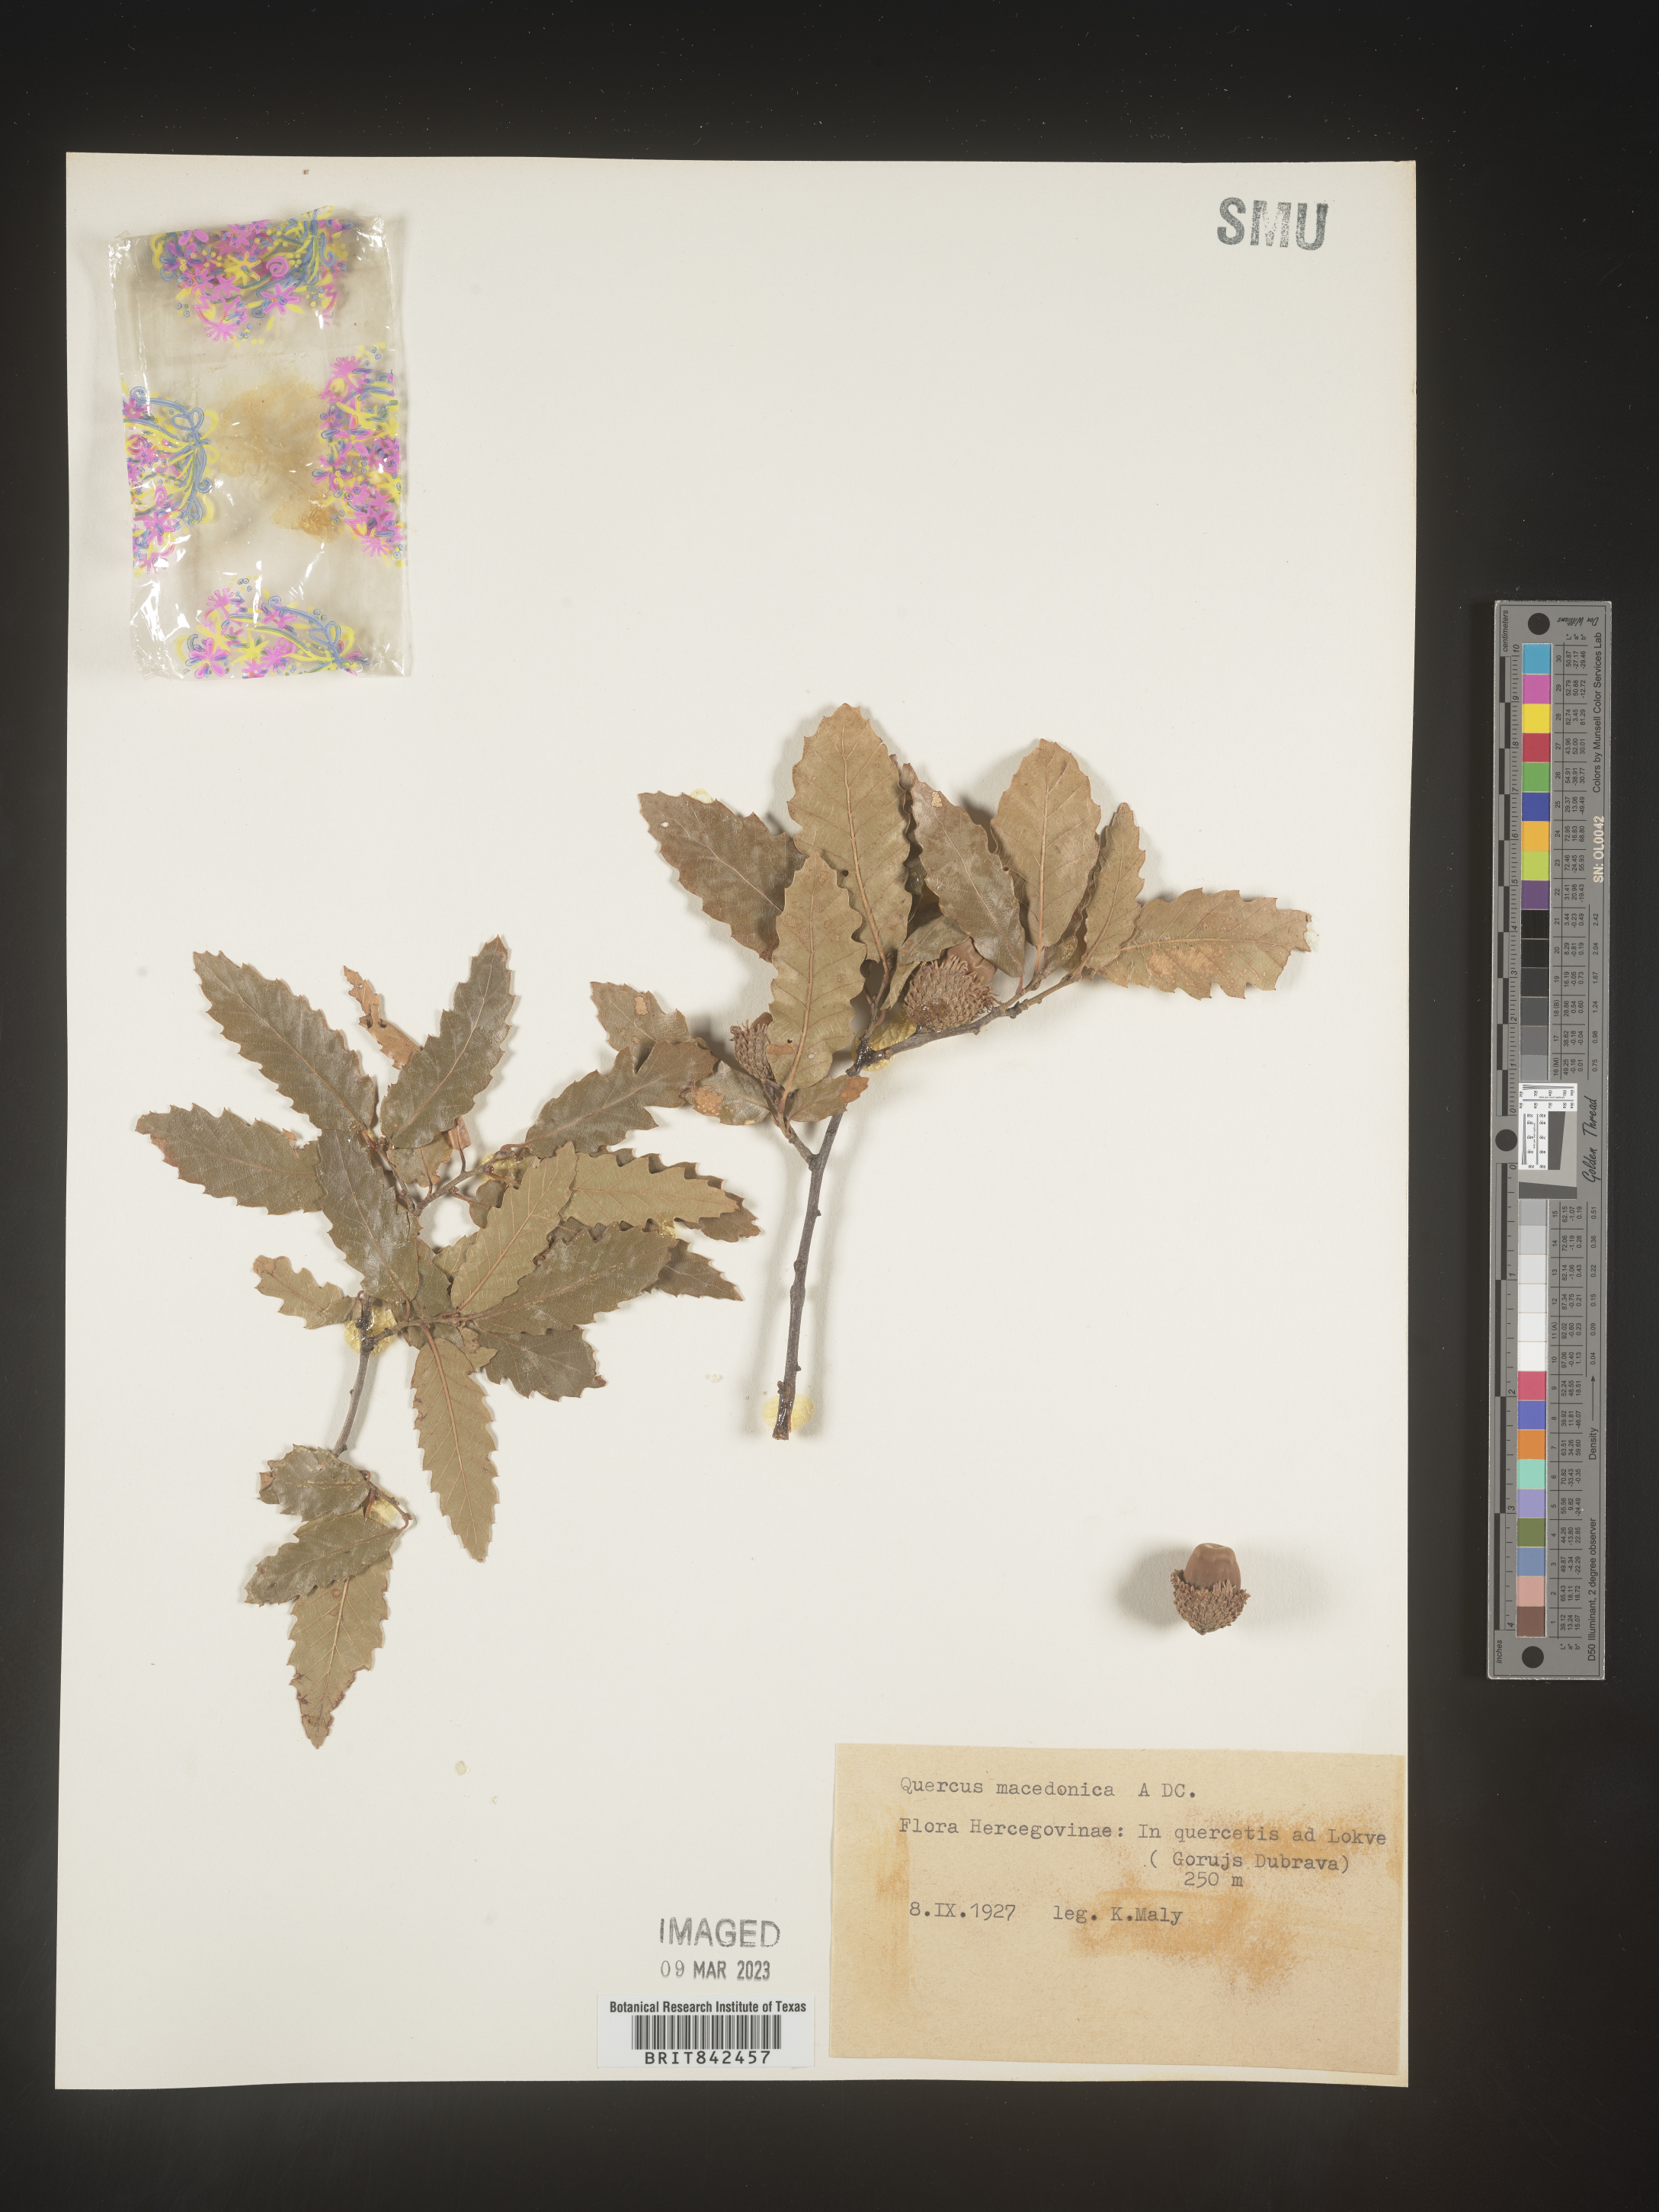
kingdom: Plantae
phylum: Tracheophyta
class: Magnoliopsida
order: Fagales
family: Fagaceae
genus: Quercus
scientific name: Quercus
